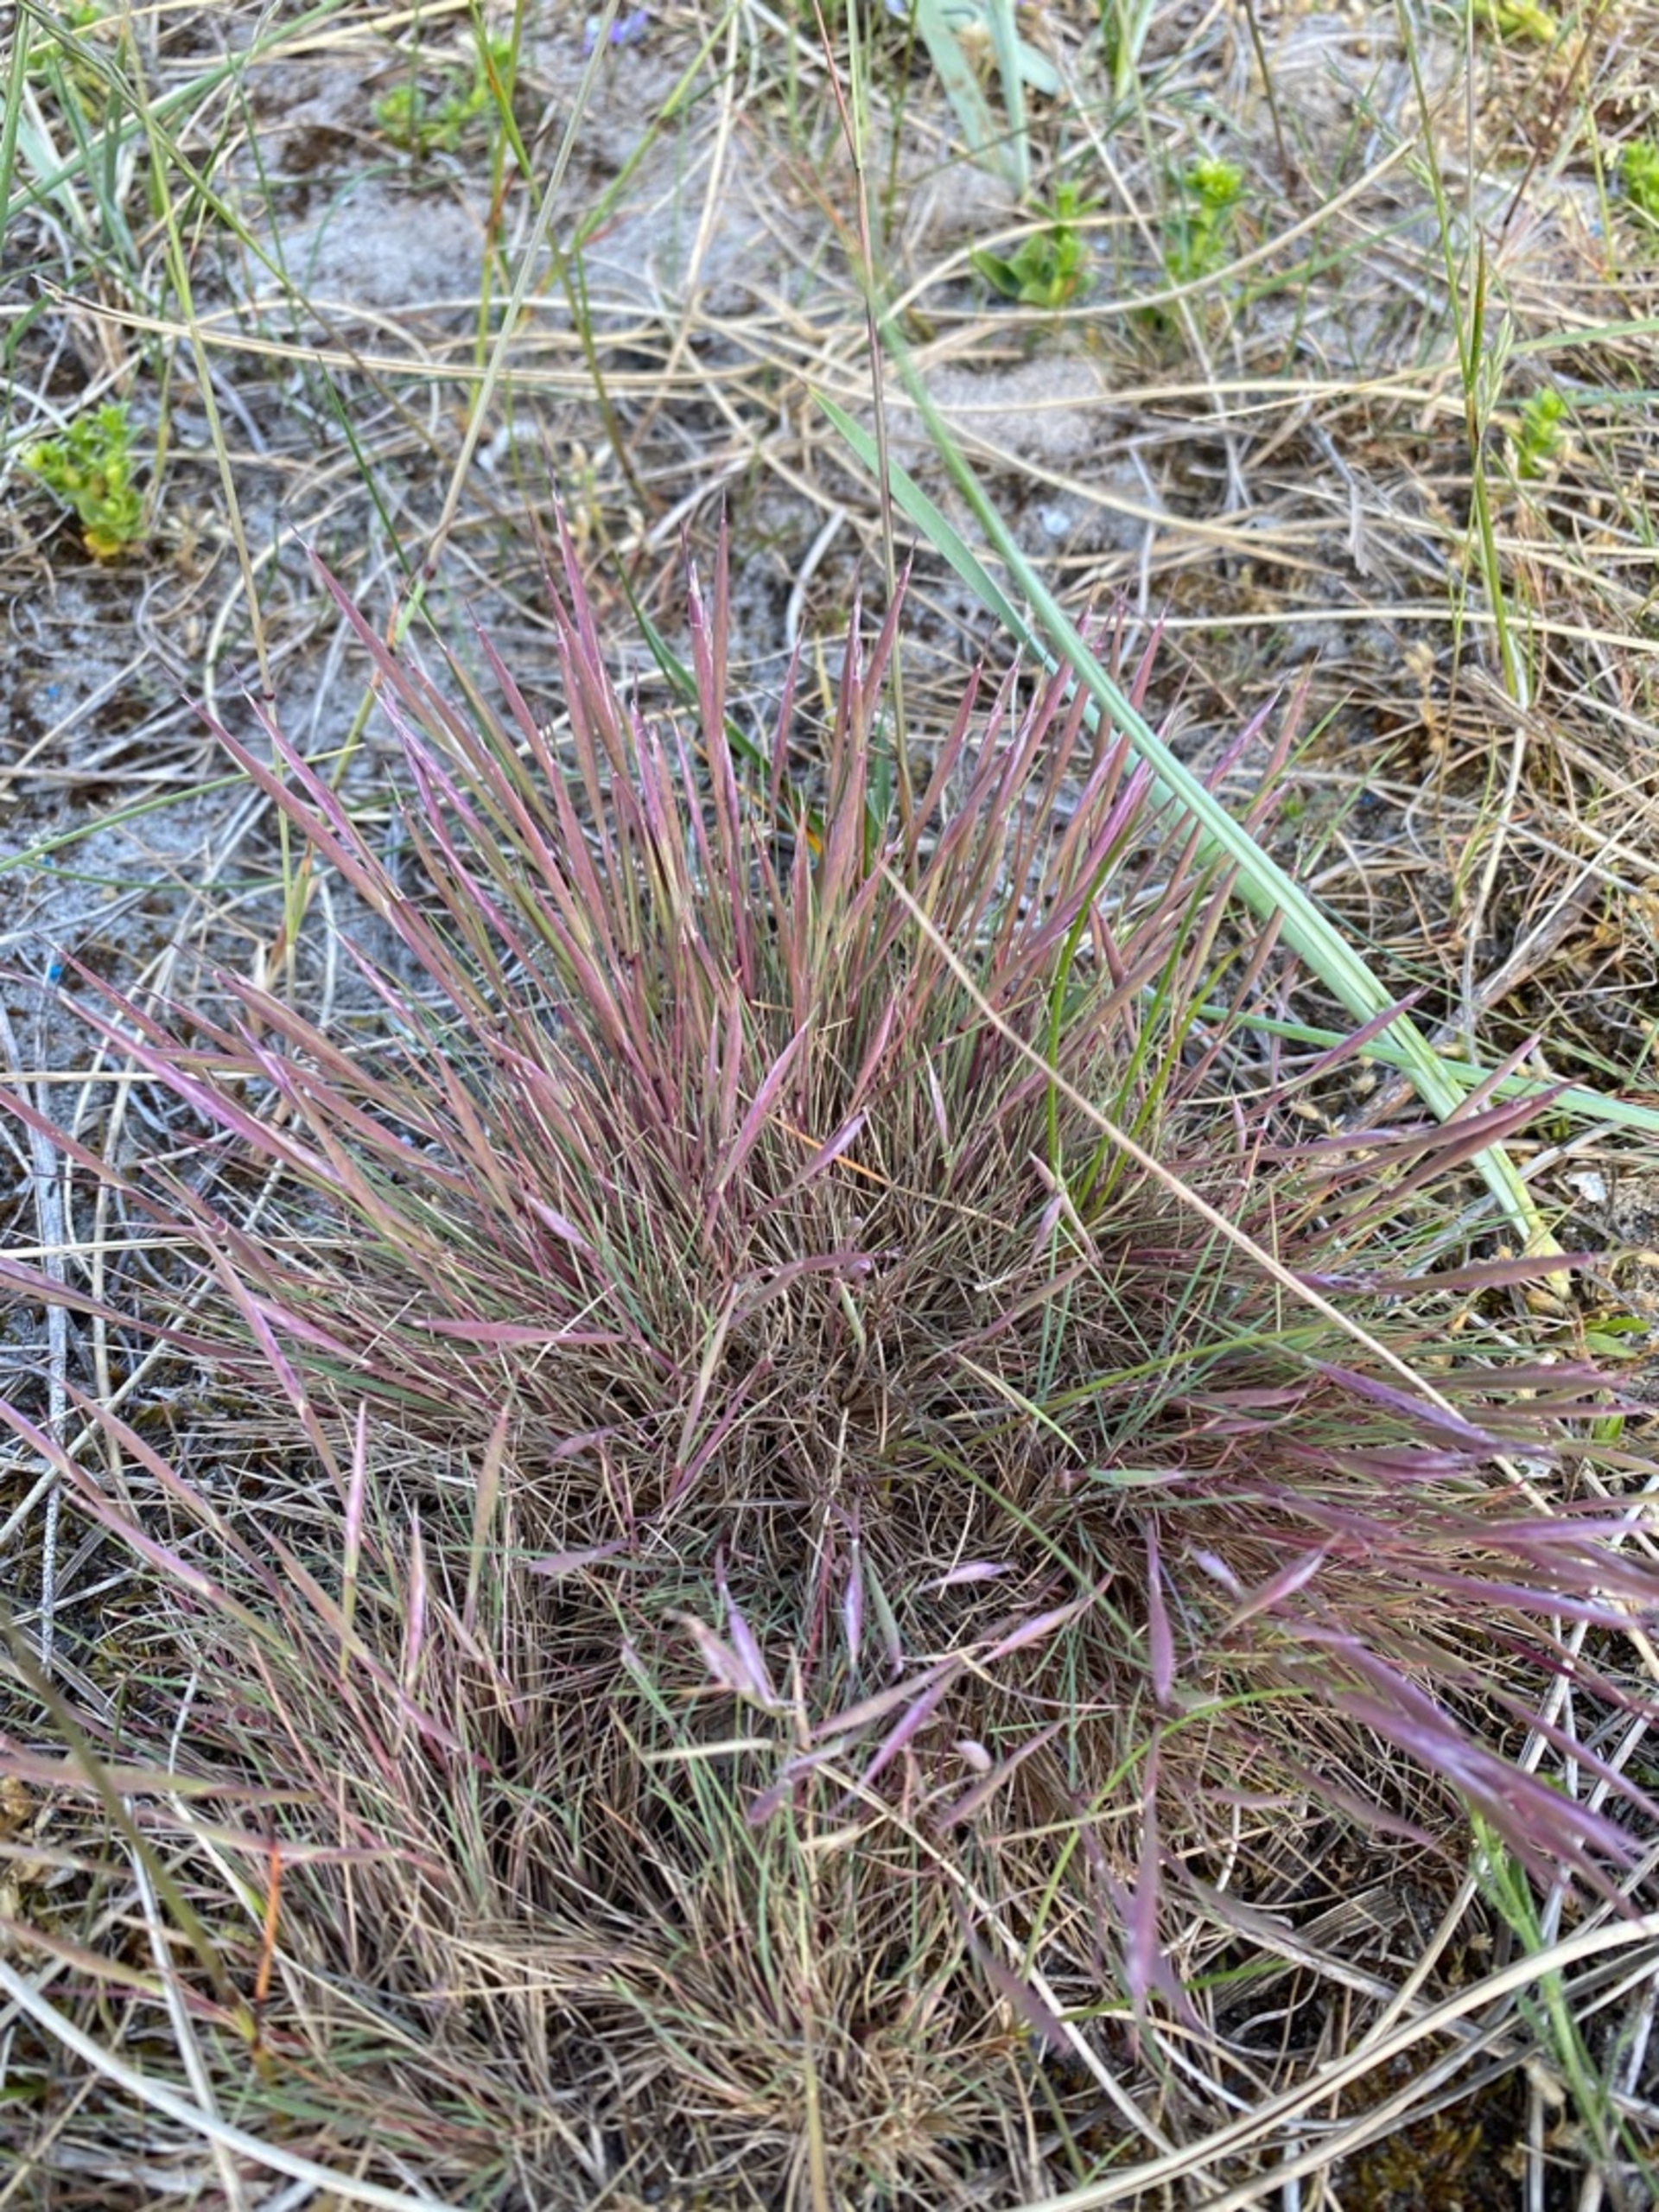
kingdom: Plantae
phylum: Tracheophyta
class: Liliopsida
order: Poales
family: Poaceae
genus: Corynephorus
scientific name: Corynephorus canescens
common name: Sandskæg
